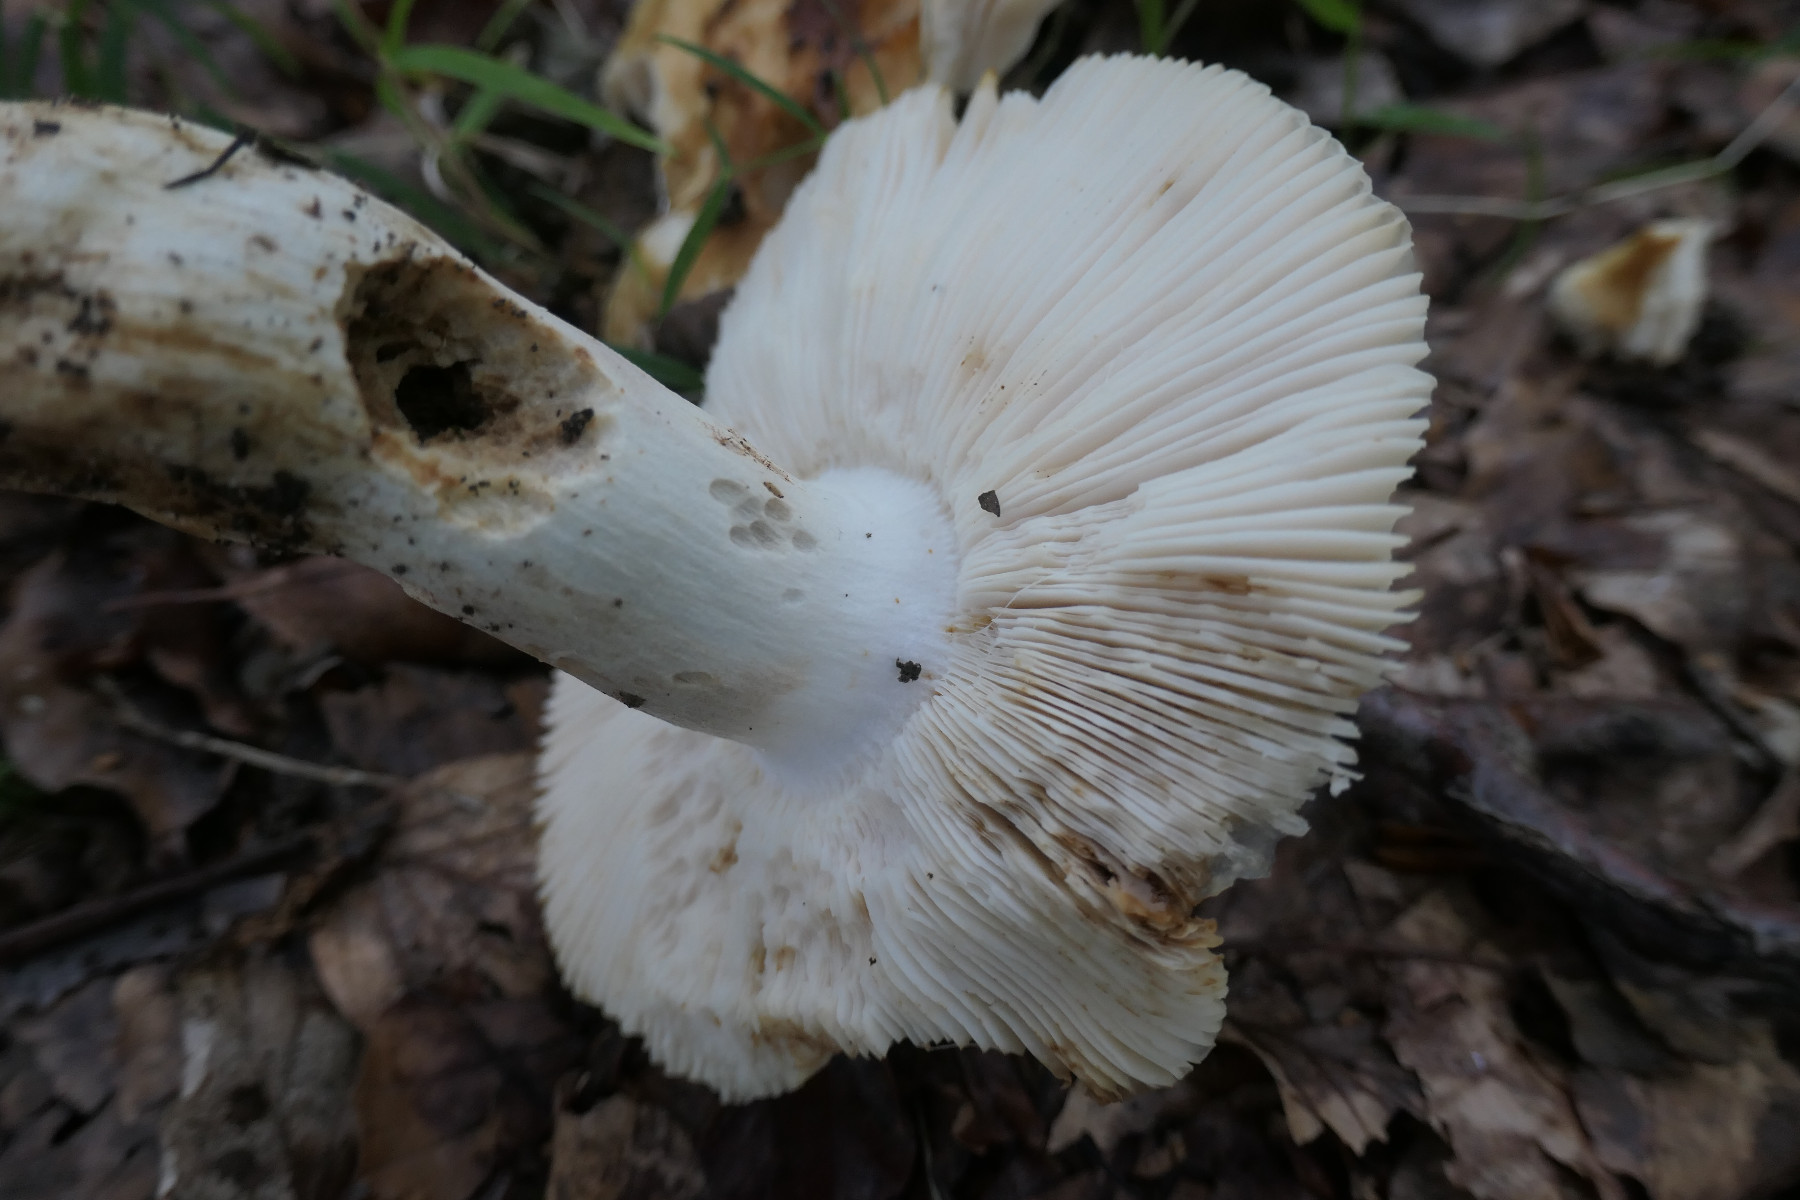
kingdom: Fungi
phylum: Basidiomycota
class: Agaricomycetes
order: Russulales
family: Russulaceae
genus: Russula
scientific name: Russula foetens
